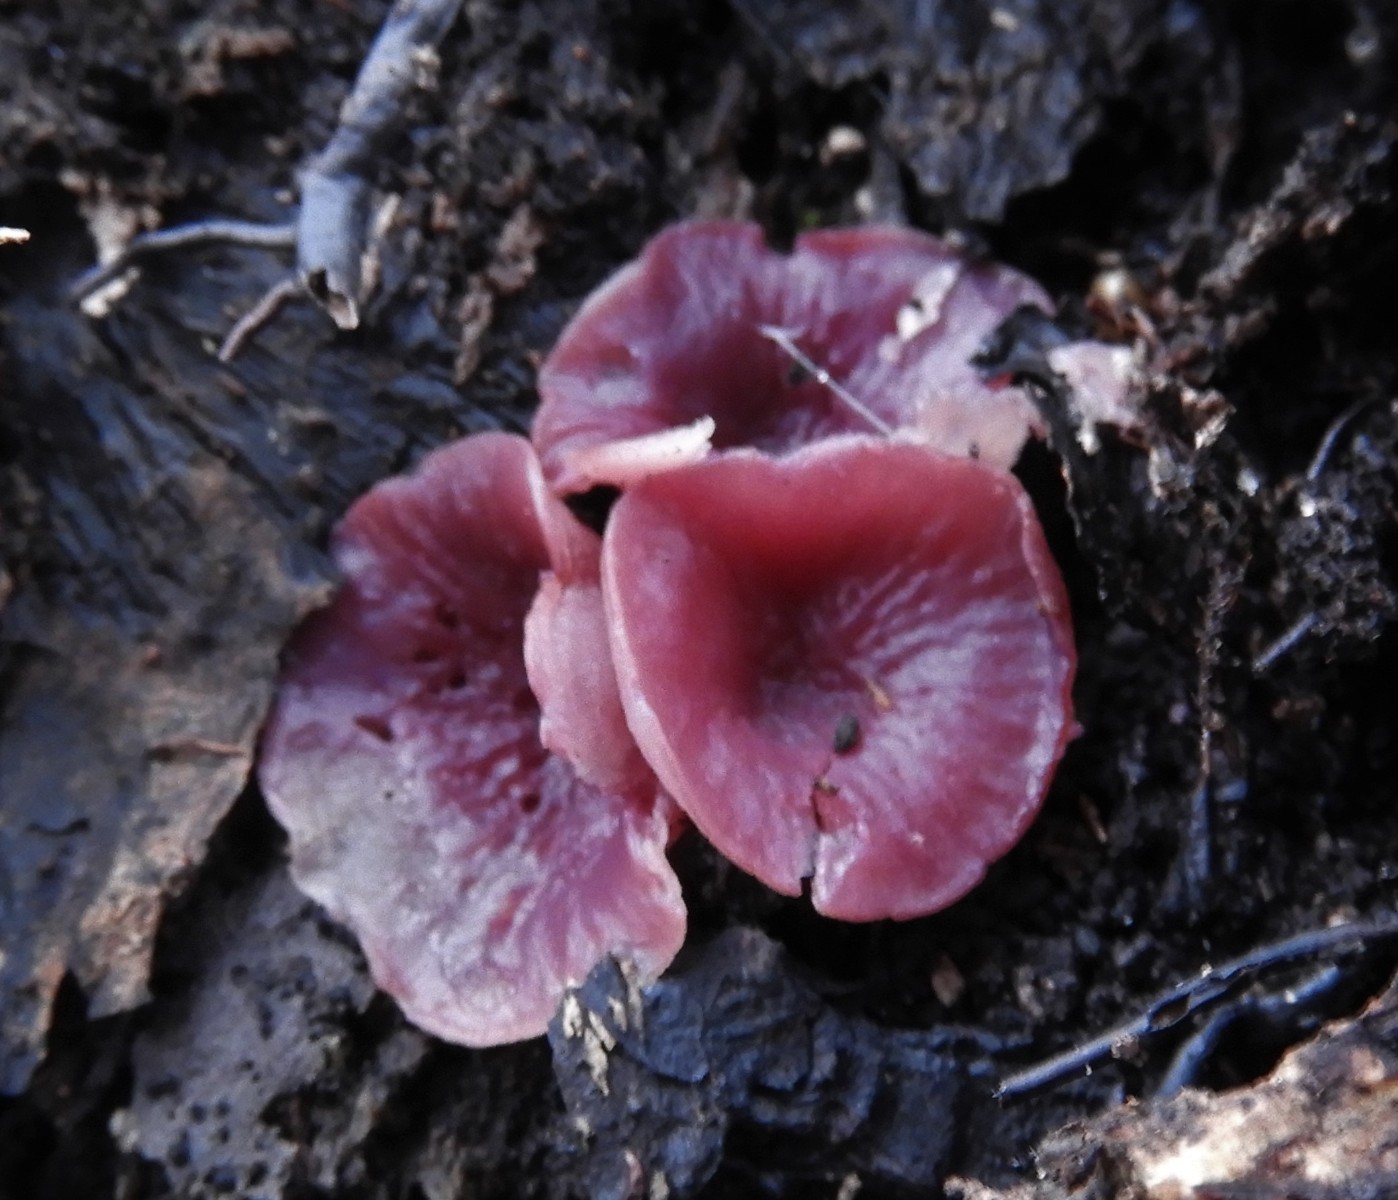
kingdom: Fungi
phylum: Ascomycota
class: Leotiomycetes
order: Helotiales
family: Gelatinodiscaceae
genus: Ascocoryne
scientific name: Ascocoryne cylichnium
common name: stor sejskive
